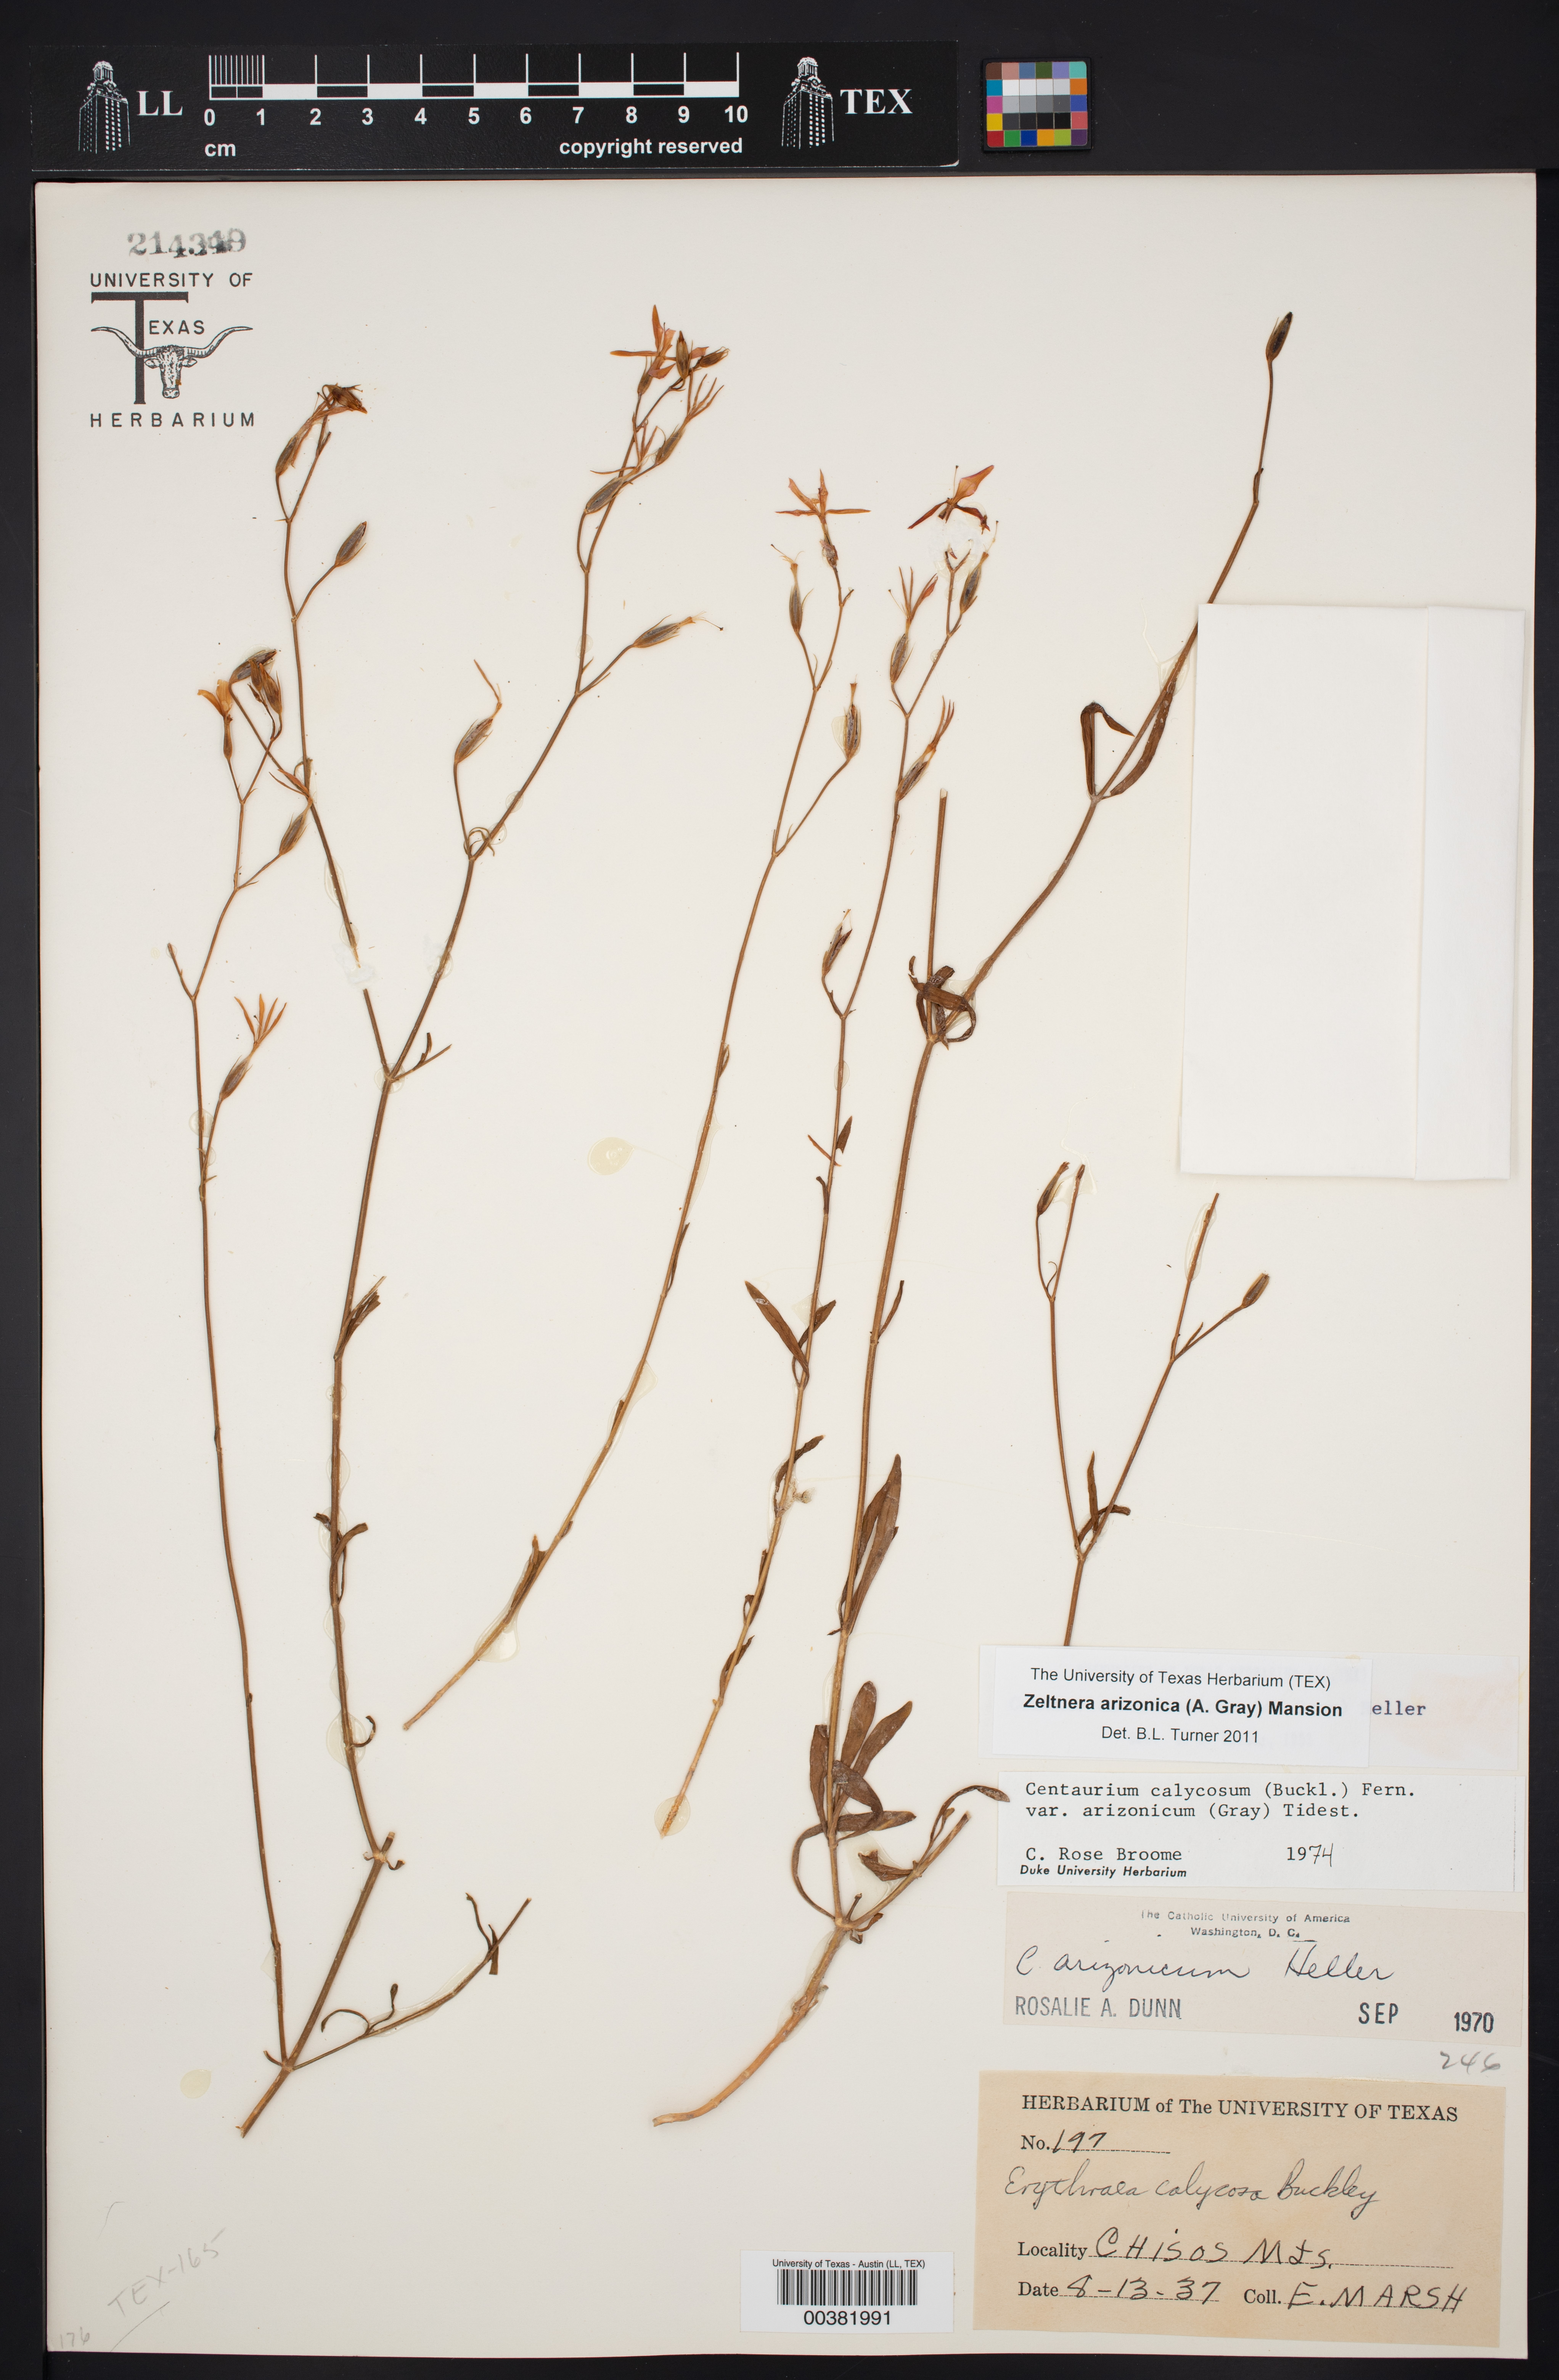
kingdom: Plantae
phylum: Tracheophyta
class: Magnoliopsida
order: Gentianales
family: Gentianaceae
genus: Zeltnera
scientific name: Zeltnera arizonica
